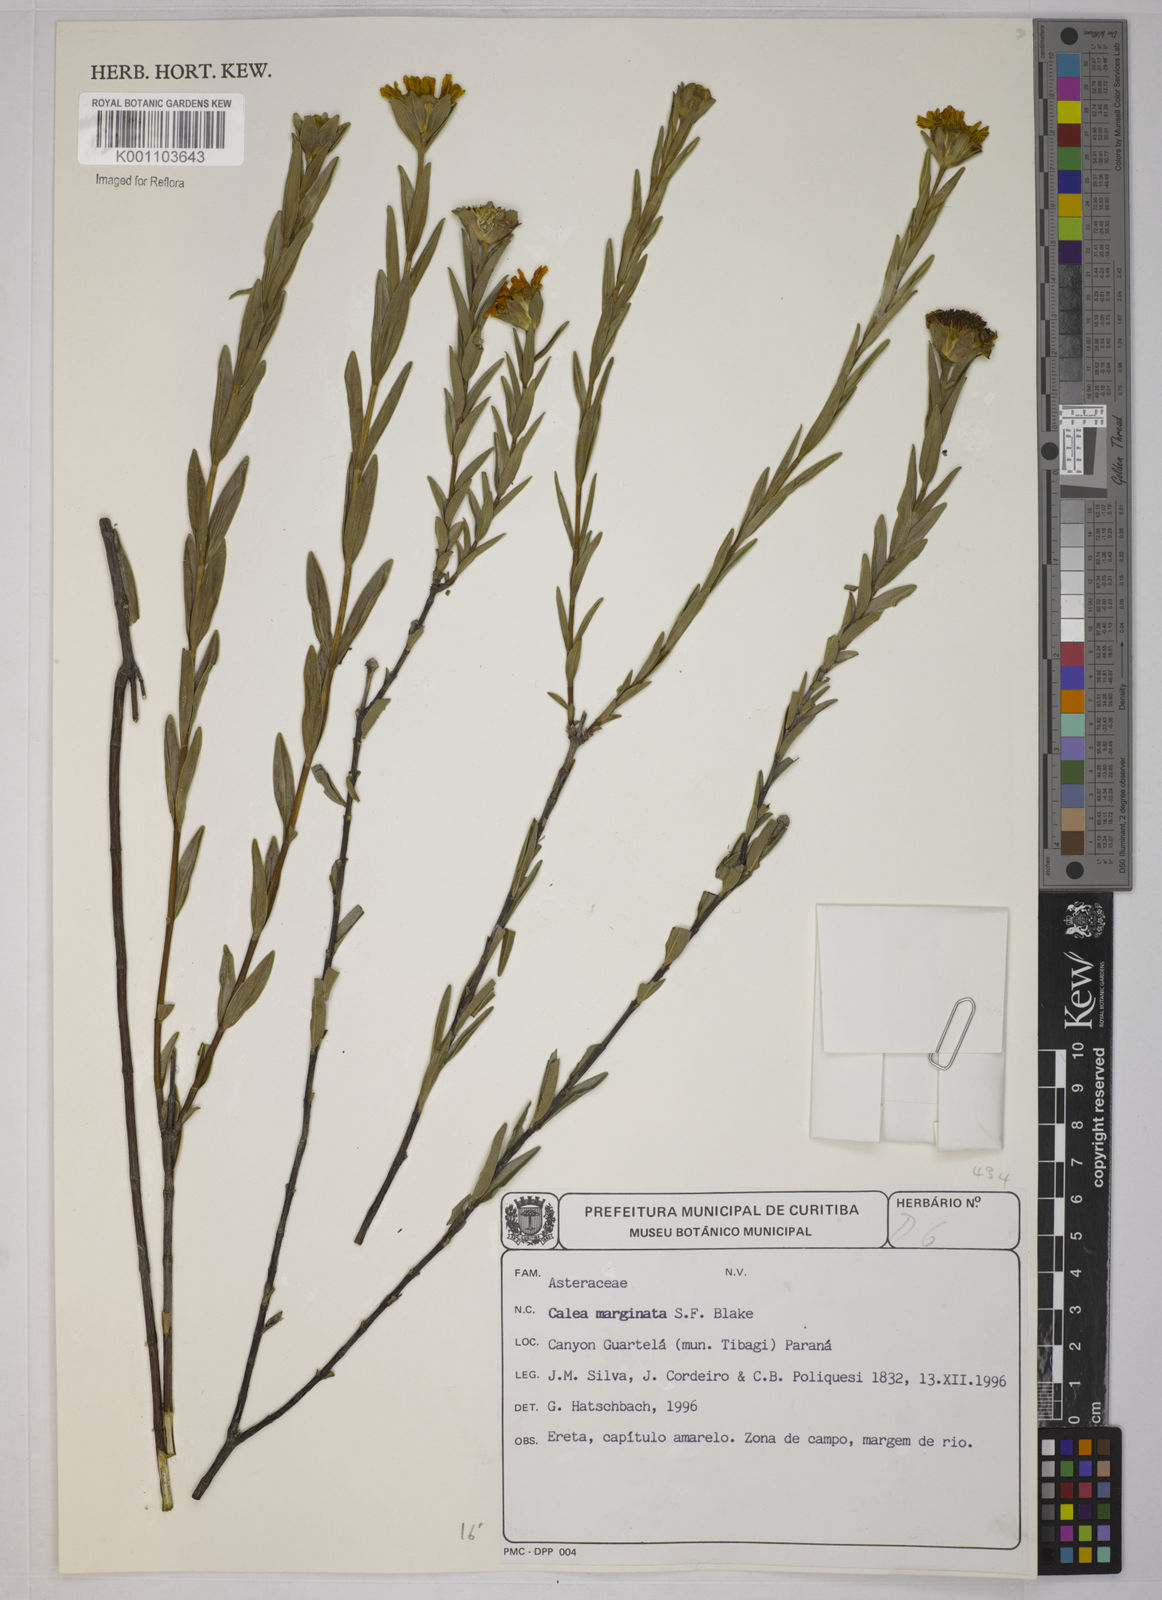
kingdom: Plantae
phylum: Tracheophyta
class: Magnoliopsida
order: Asterales
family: Asteraceae
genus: Calea
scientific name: Calea marginata
